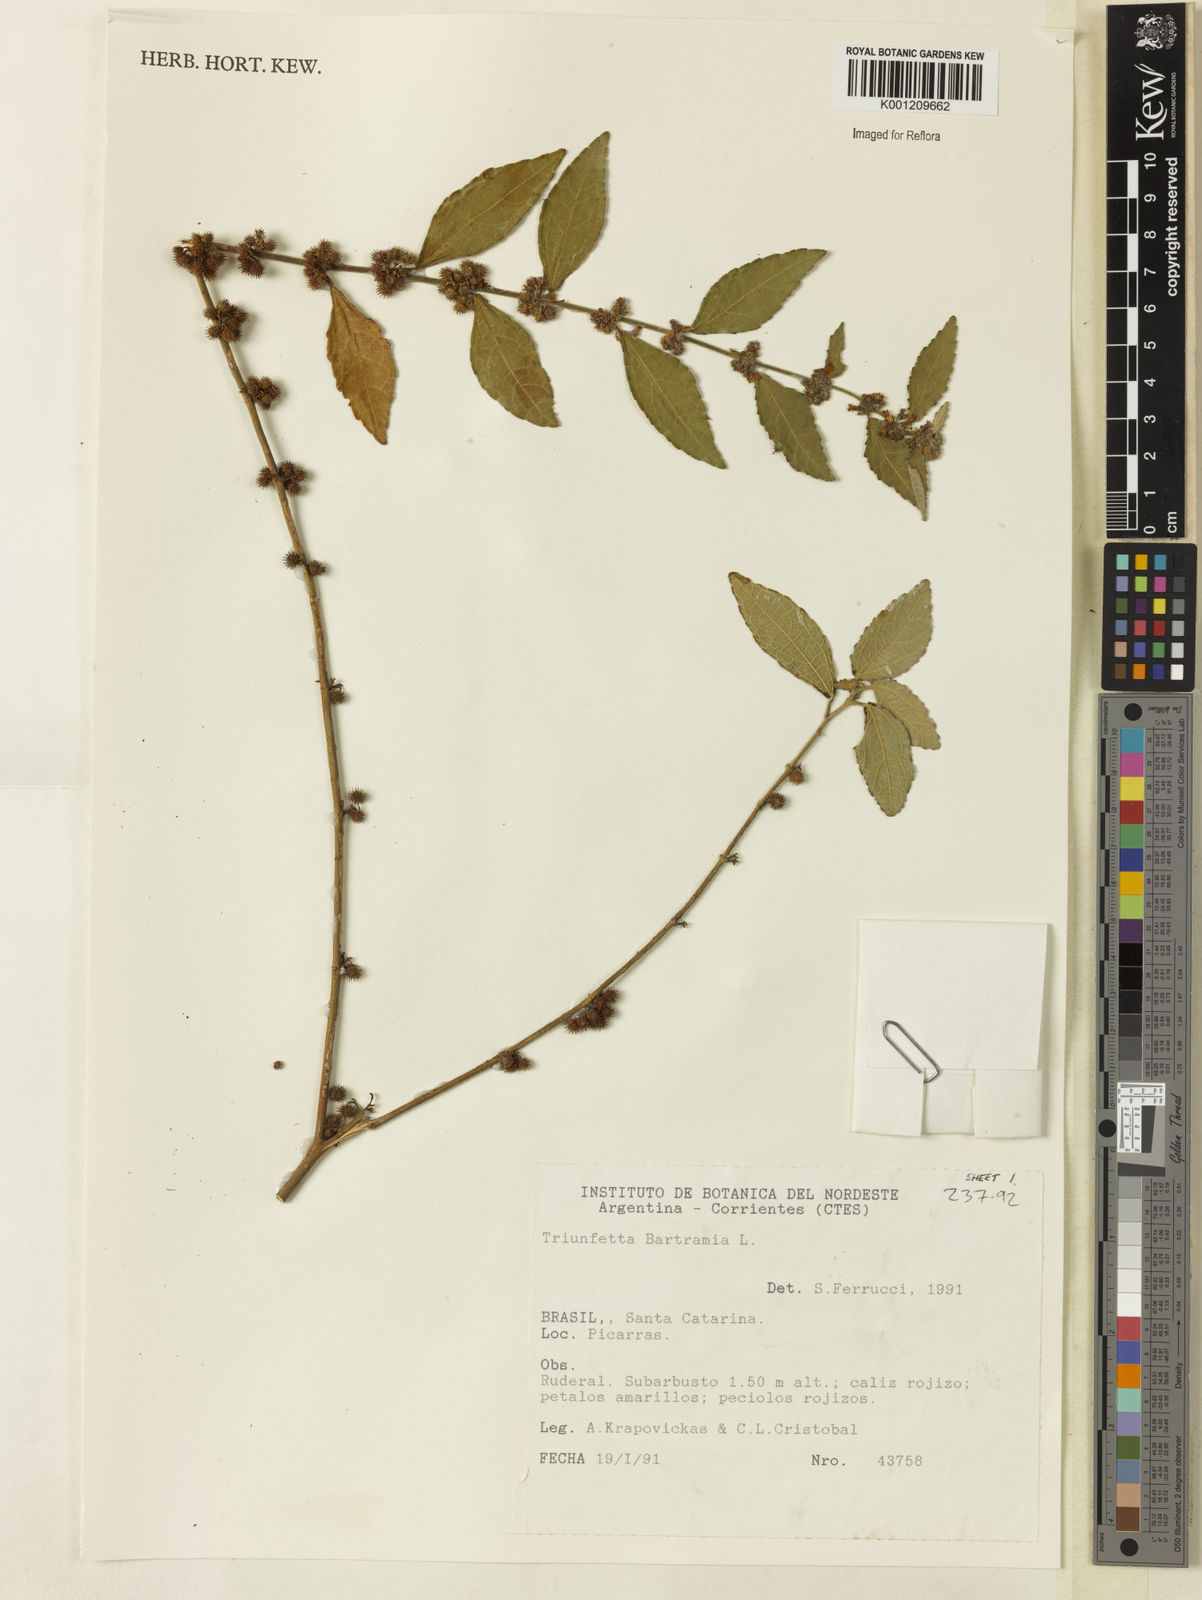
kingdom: Plantae
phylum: Tracheophyta
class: Magnoliopsida
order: Malvales
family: Malvaceae
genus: Triumfetta
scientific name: Triumfetta
